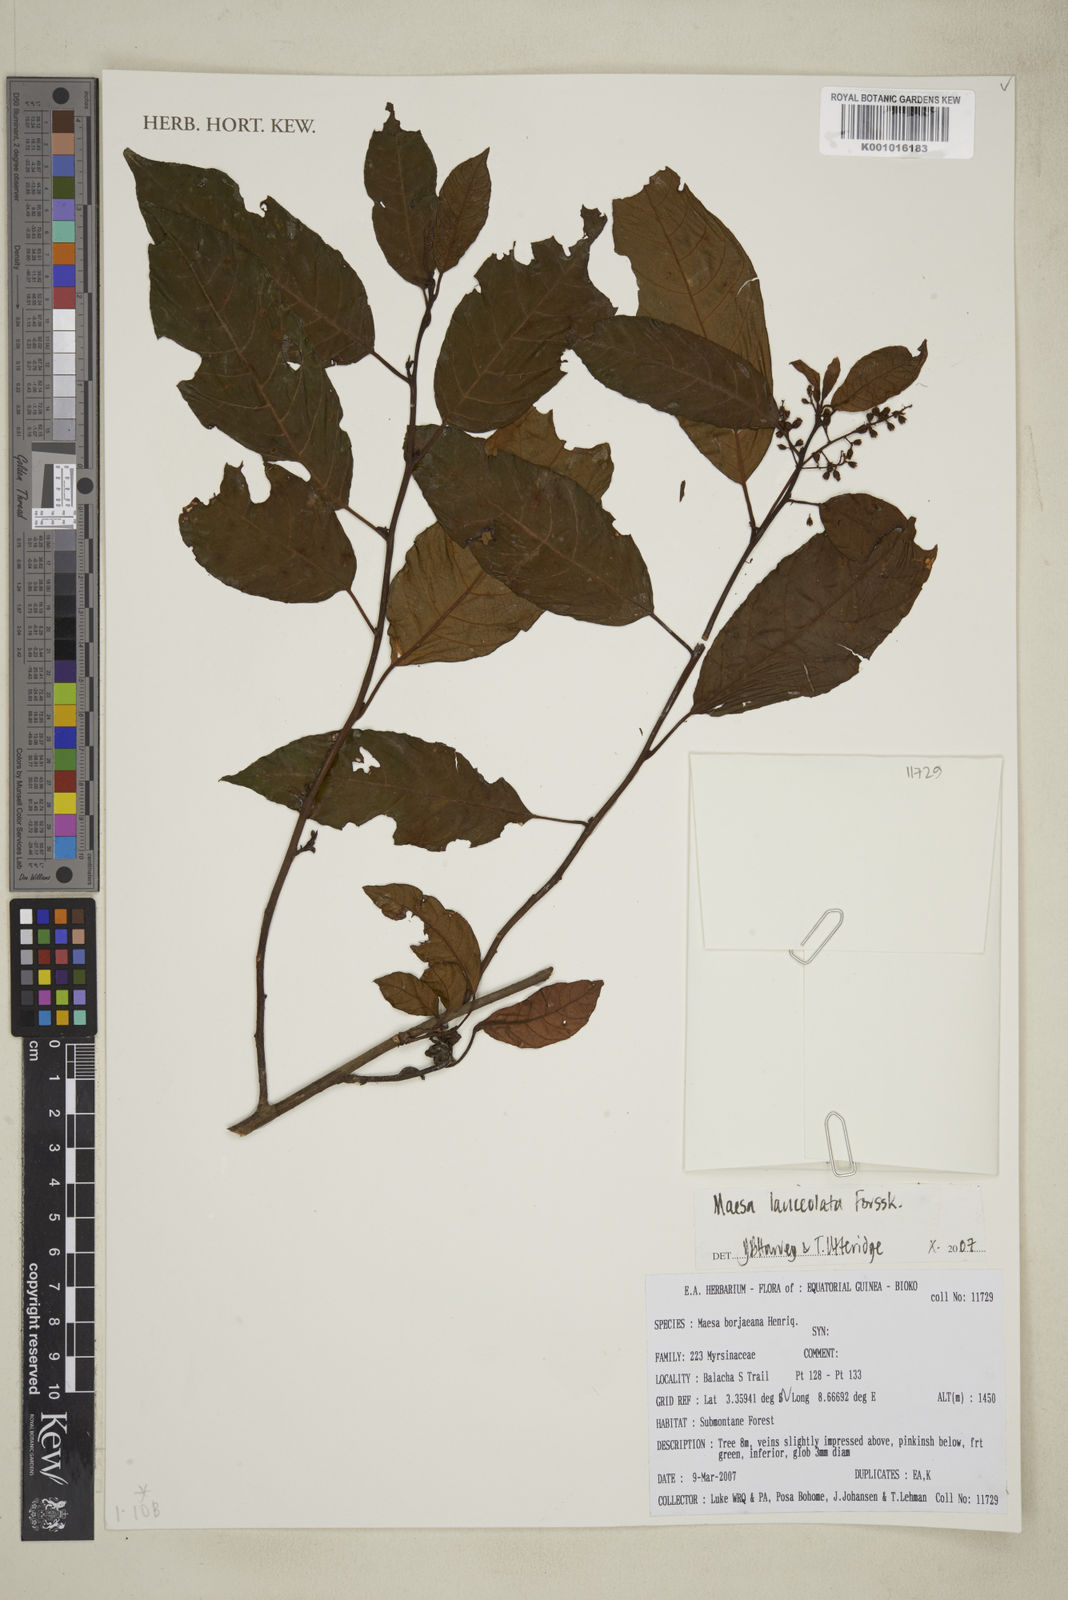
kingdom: Plantae
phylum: Tracheophyta
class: Magnoliopsida
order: Ericales
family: Primulaceae
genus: Maesa
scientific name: Maesa lanceolata
